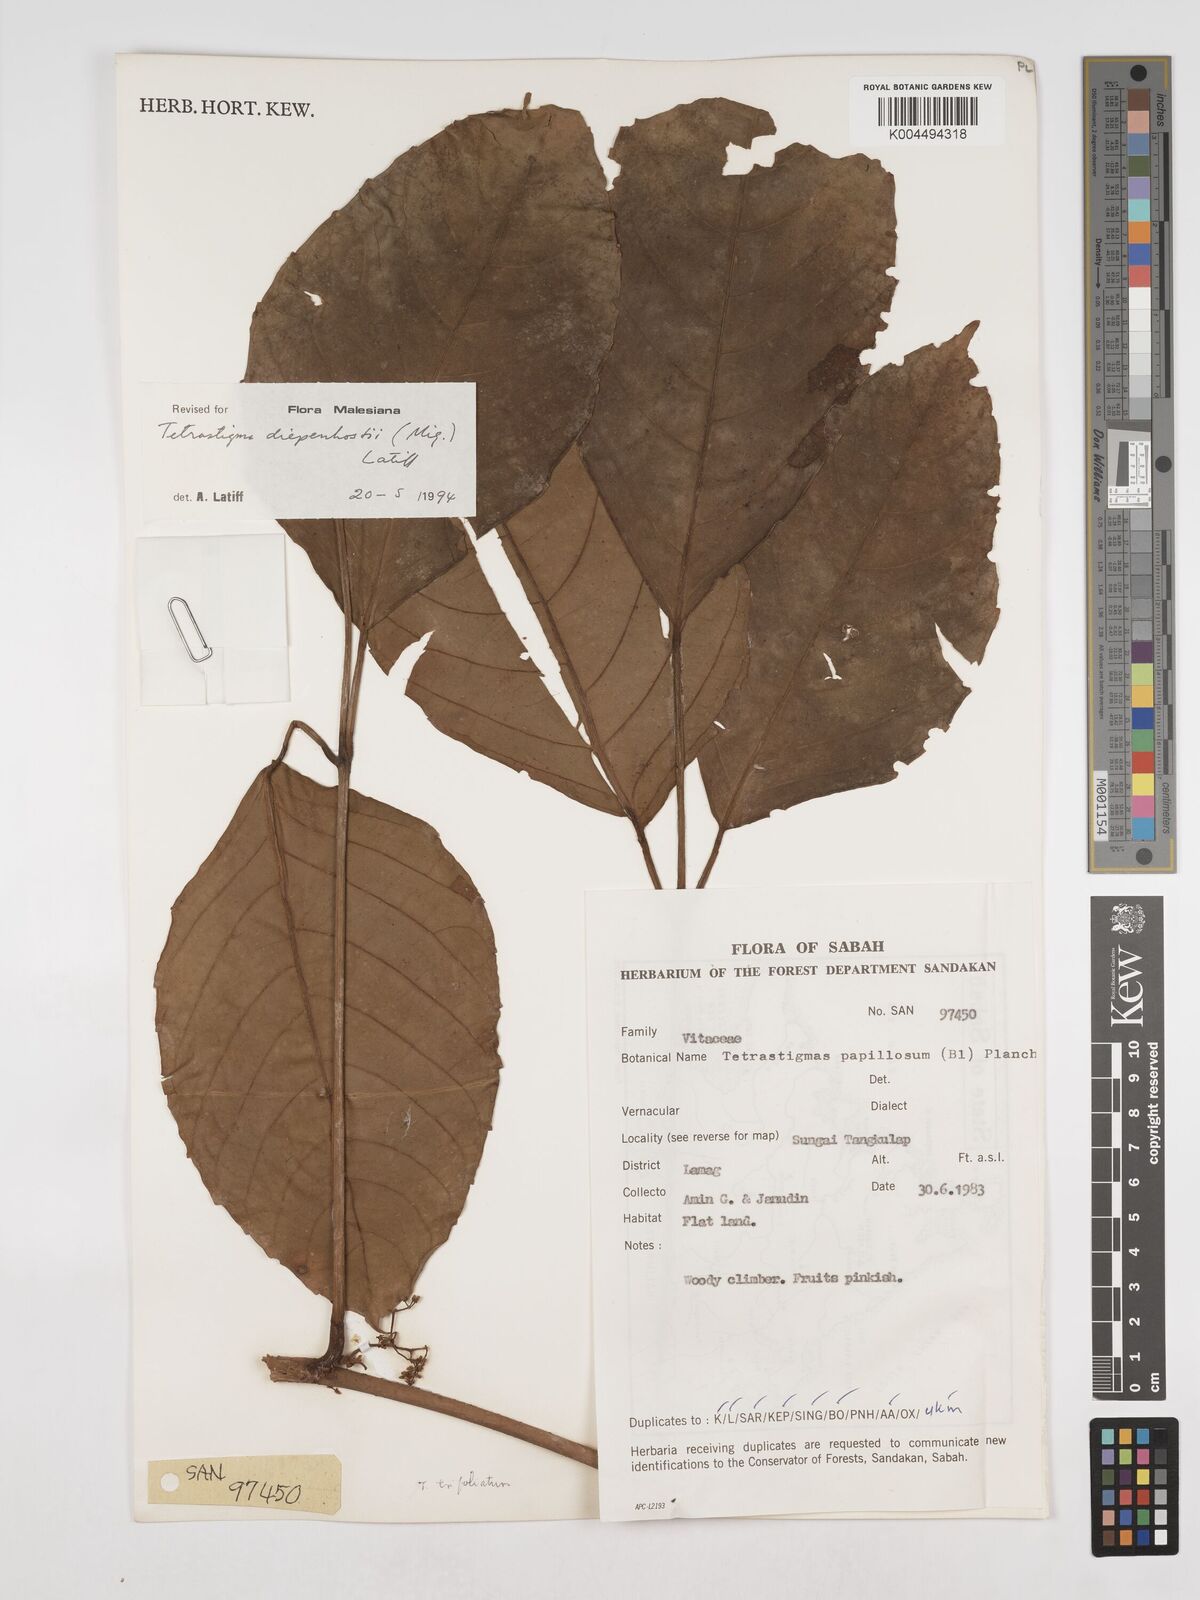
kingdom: Plantae
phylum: Tracheophyta
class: Magnoliopsida
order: Vitales
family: Vitaceae
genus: Tetrastigma
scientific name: Tetrastigma trifoliolatum
